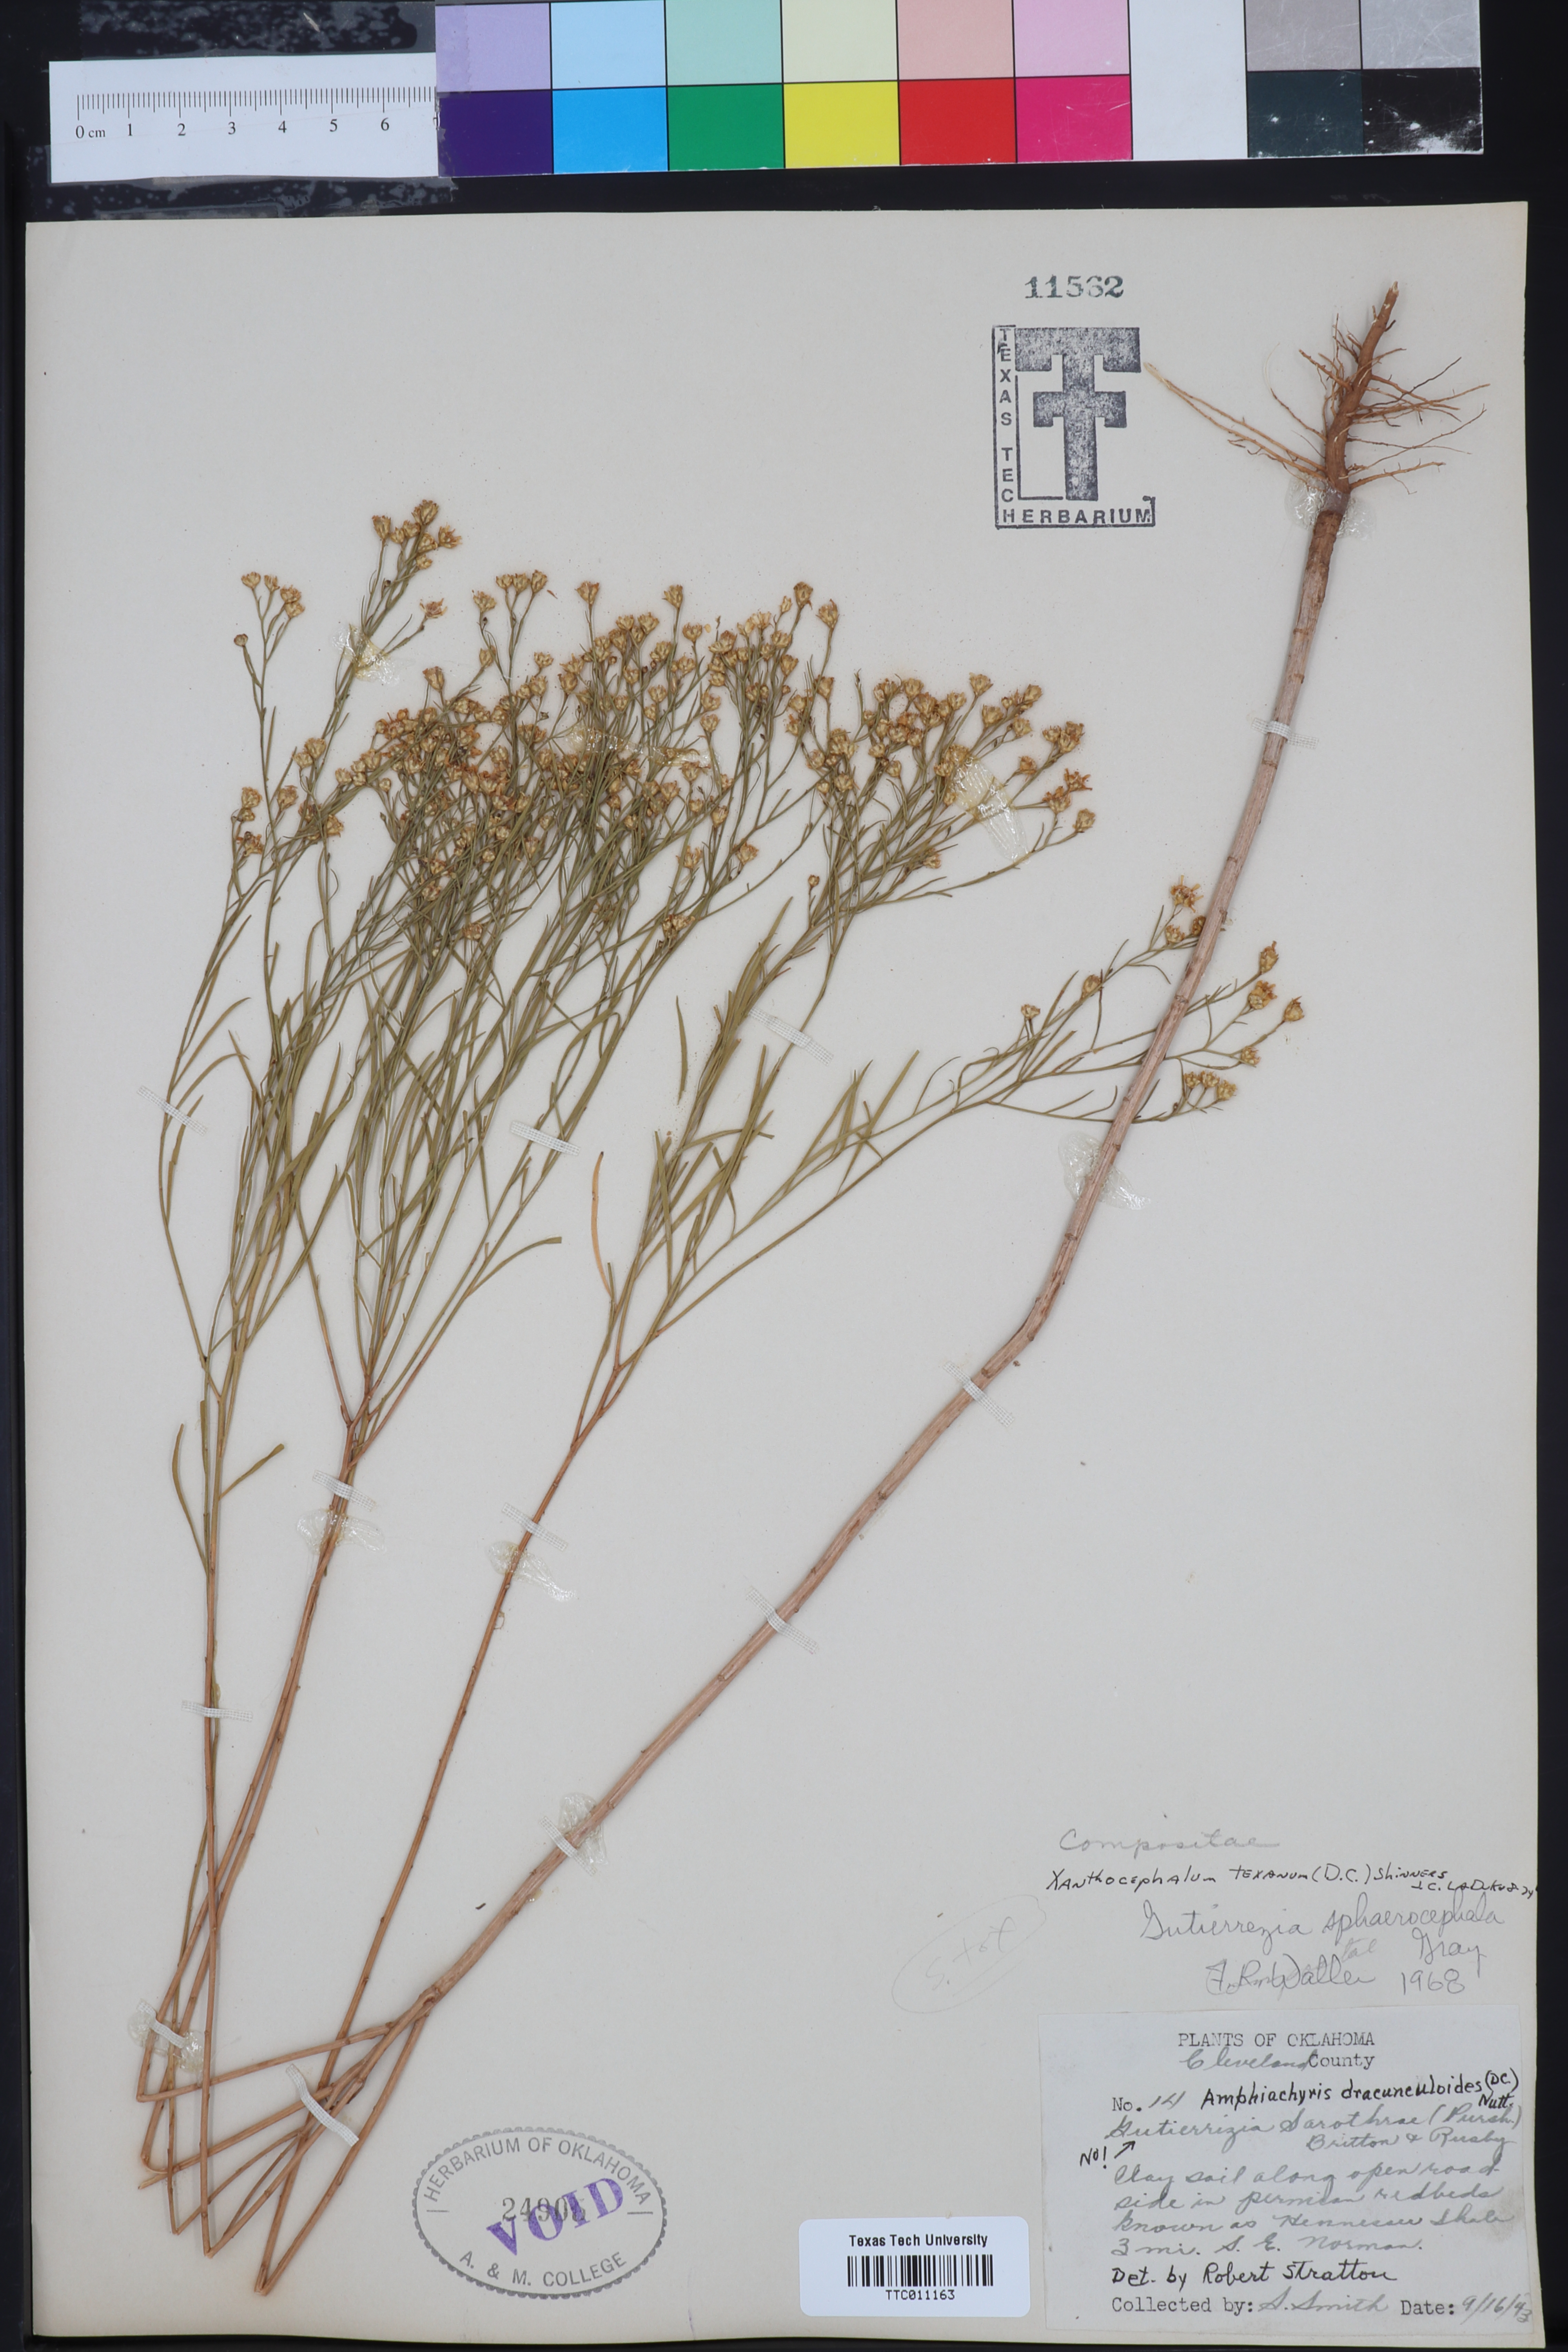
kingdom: Plantae
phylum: Tracheophyta
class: Magnoliopsida
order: Asterales
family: Asteraceae
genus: Gutierrezia
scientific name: Gutierrezia texana
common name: Texas snakeweed
